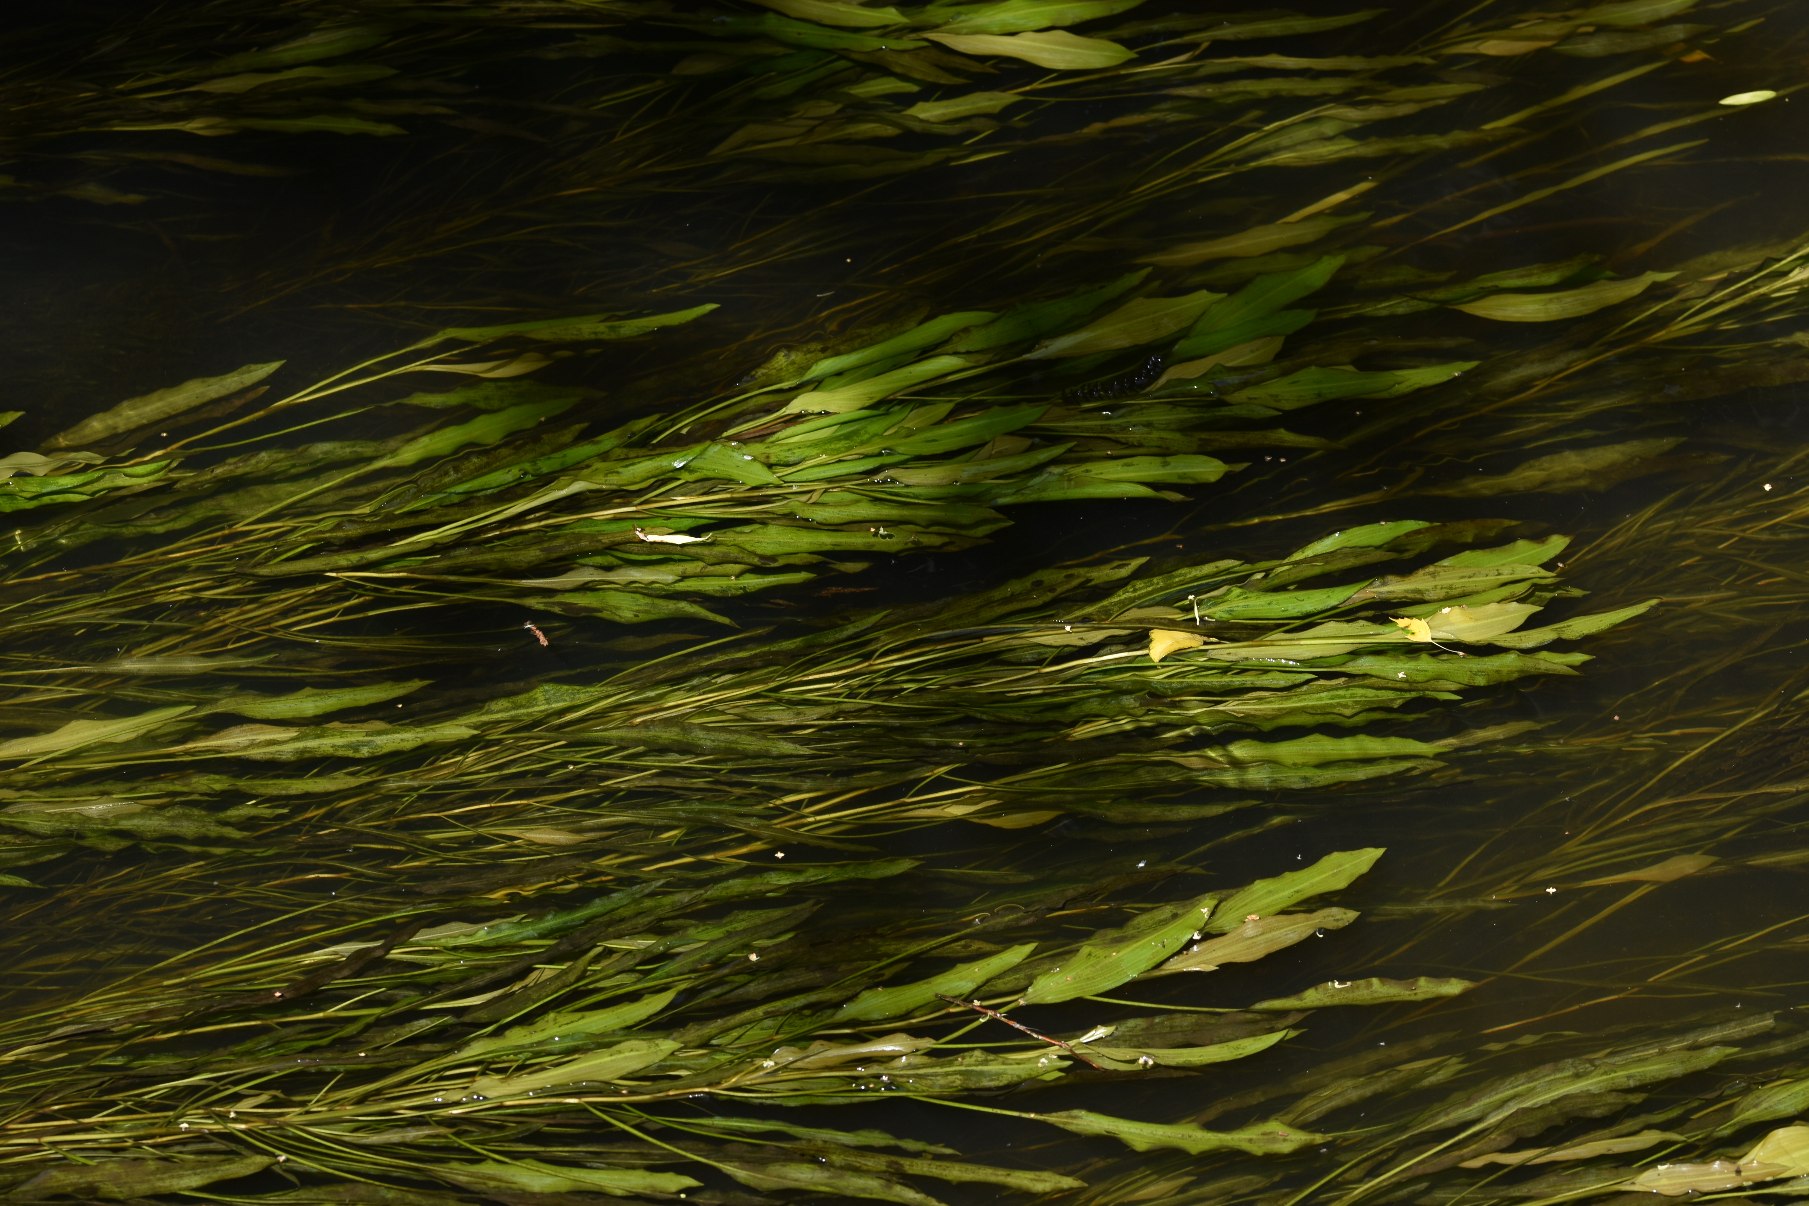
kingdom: Plantae
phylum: Tracheophyta
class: Liliopsida
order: Alismatales
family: Potamogetonaceae
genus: Potamogeton
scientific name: Potamogeton lucens
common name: Glinsende vandaks
